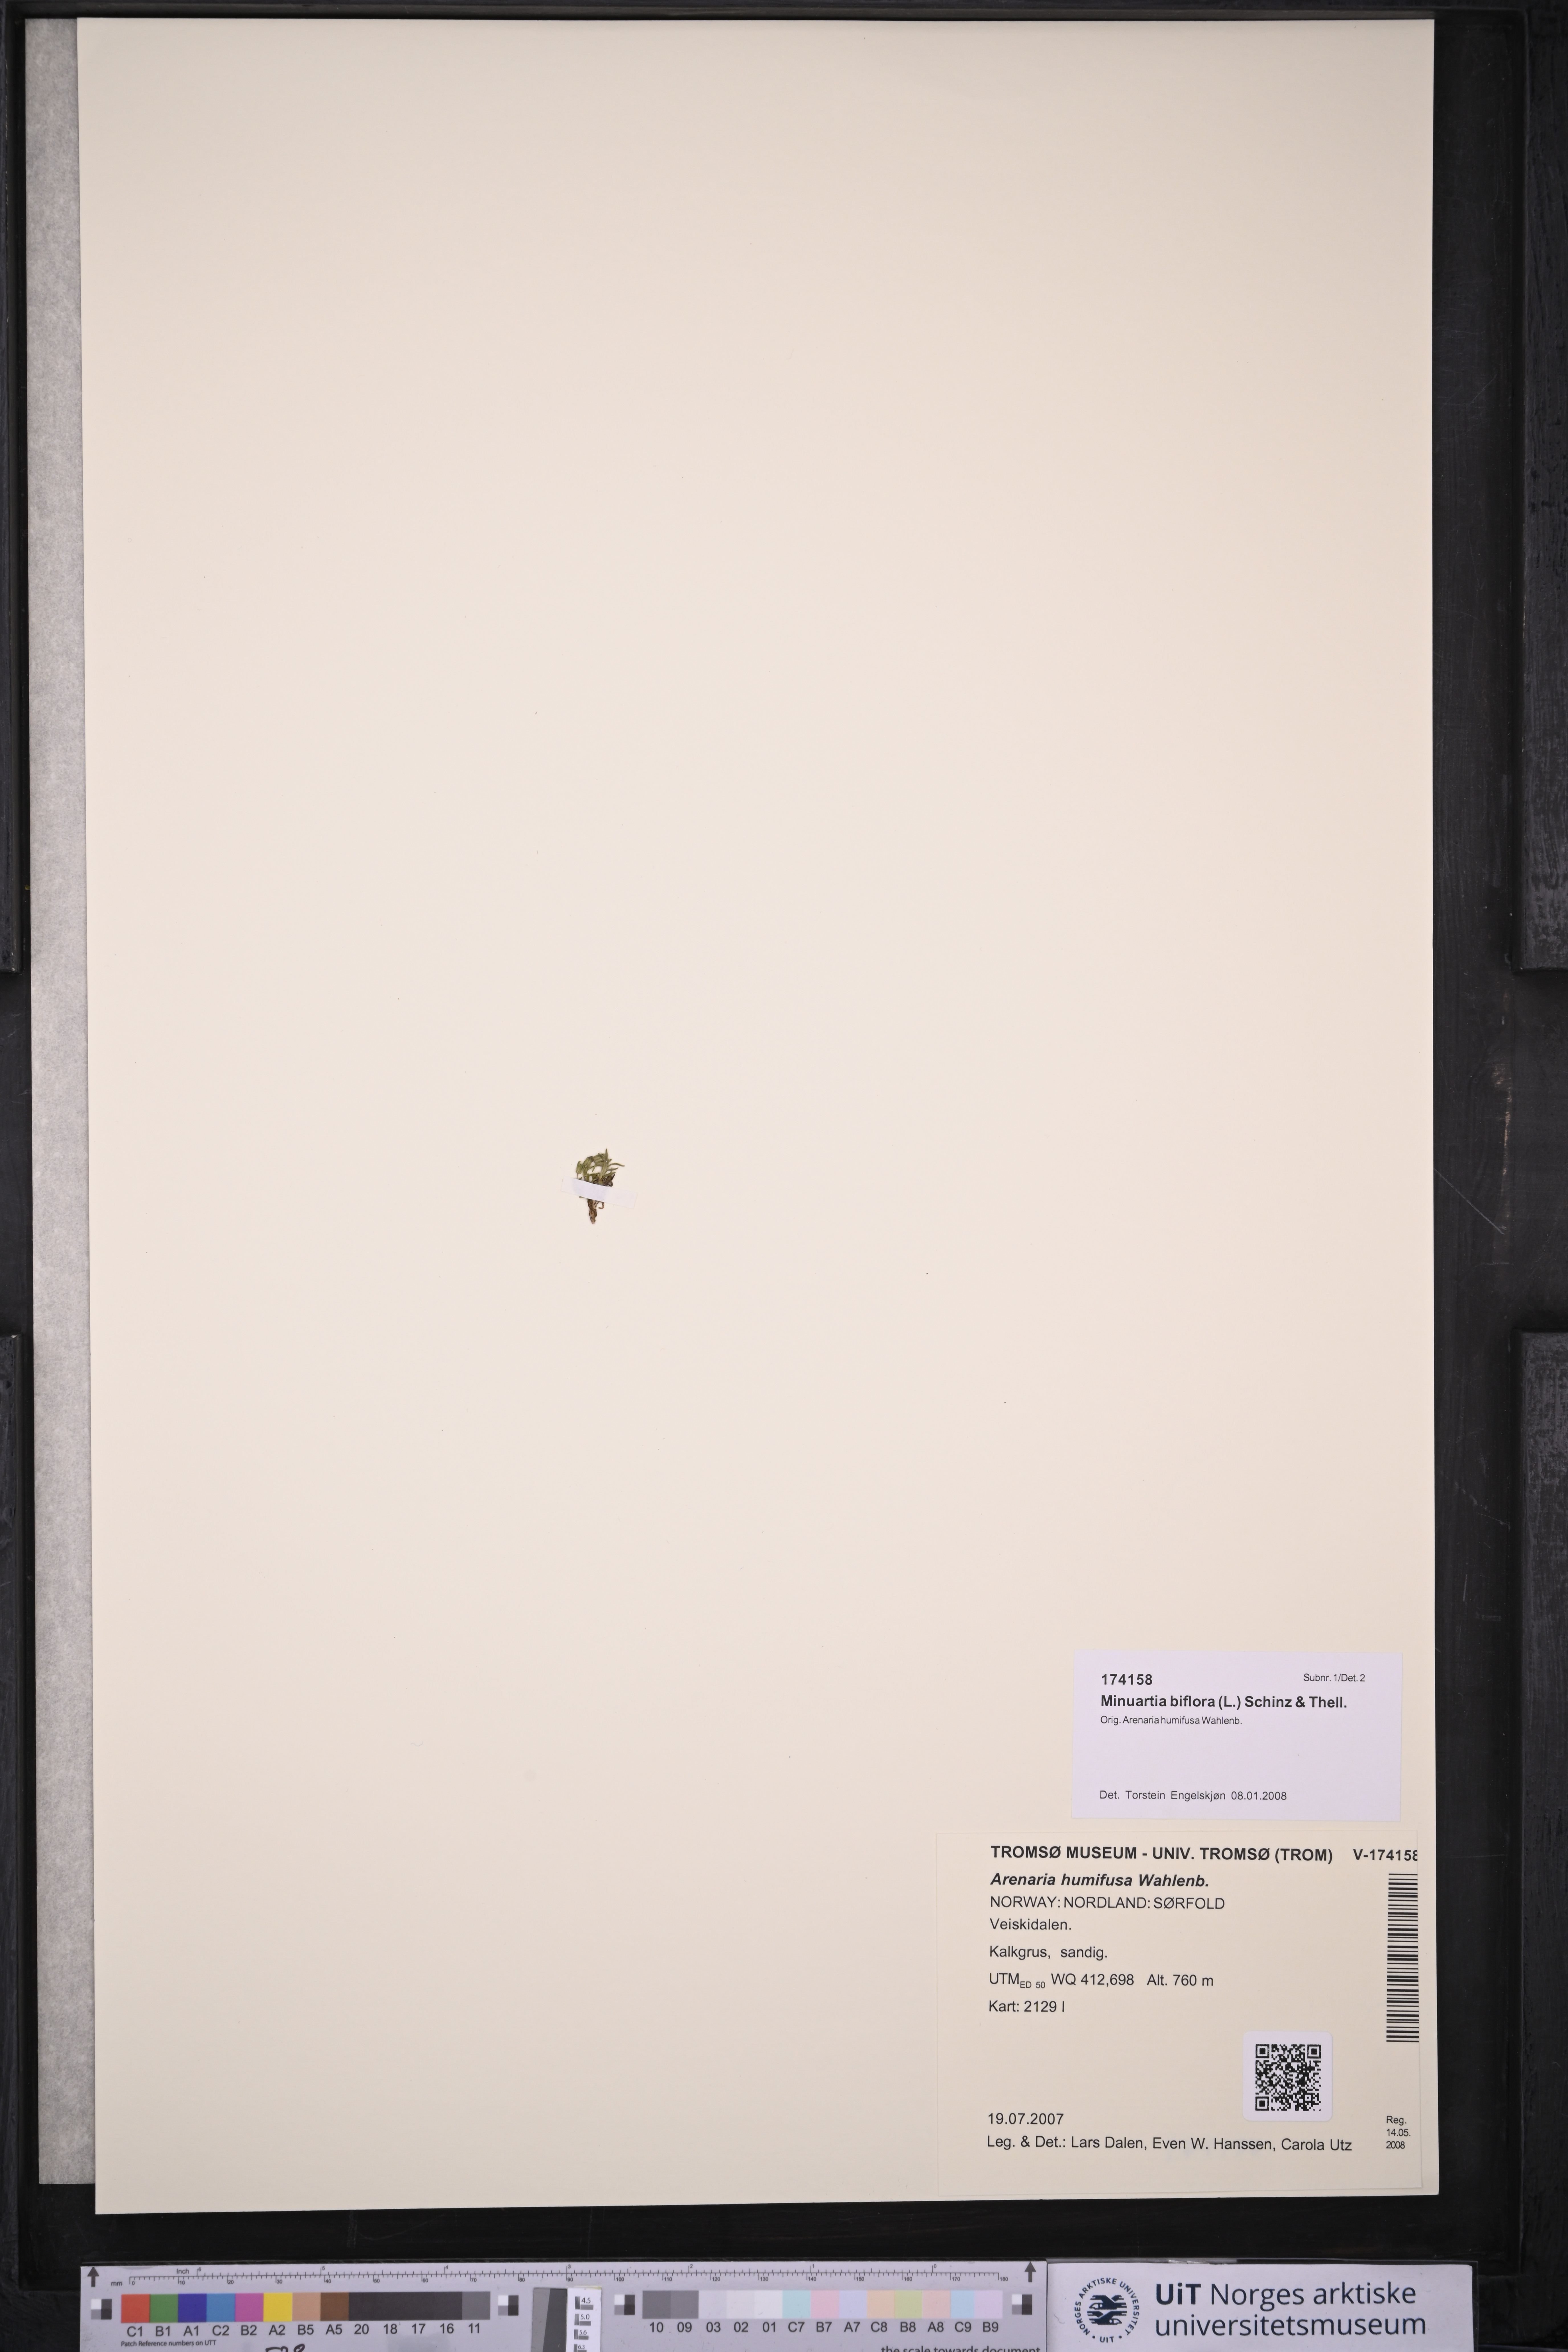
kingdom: Plantae
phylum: Tracheophyta
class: Magnoliopsida
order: Caryophyllales
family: Caryophyllaceae
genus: Cherleria
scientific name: Cherleria biflora
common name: Mountain sandwort
